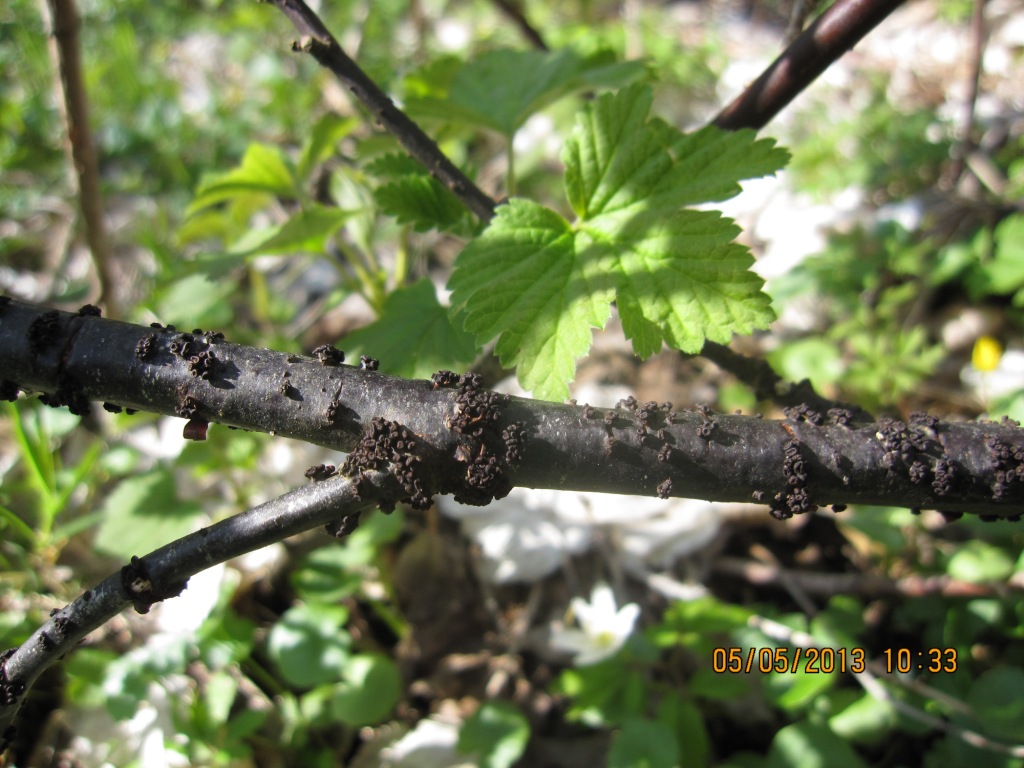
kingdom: Fungi
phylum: Ascomycota
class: Leotiomycetes
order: Helotiales
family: Godroniaceae
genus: Godronia
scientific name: Godronia ribis
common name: ribs-urneskive
